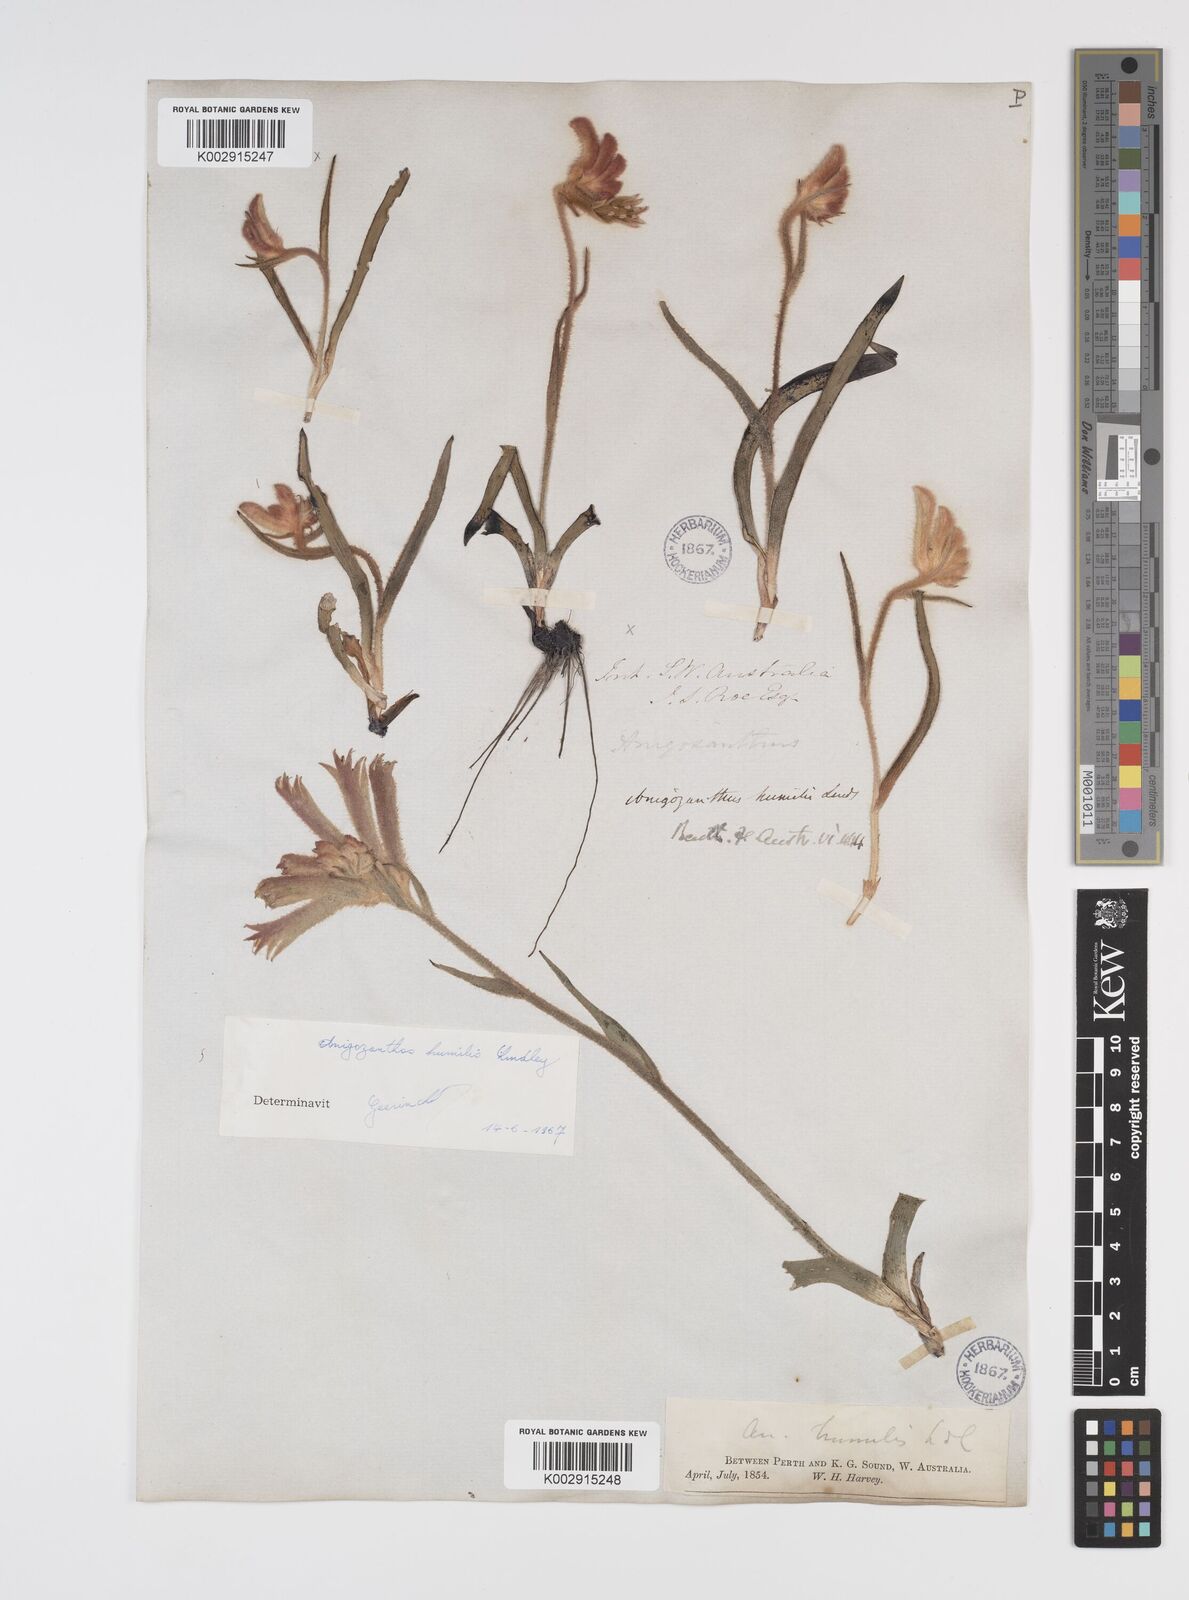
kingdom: Plantae
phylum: Tracheophyta
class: Liliopsida
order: Commelinales
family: Haemodoraceae
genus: Anigozanthos
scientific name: Anigozanthos humilis
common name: Cat's-paw
